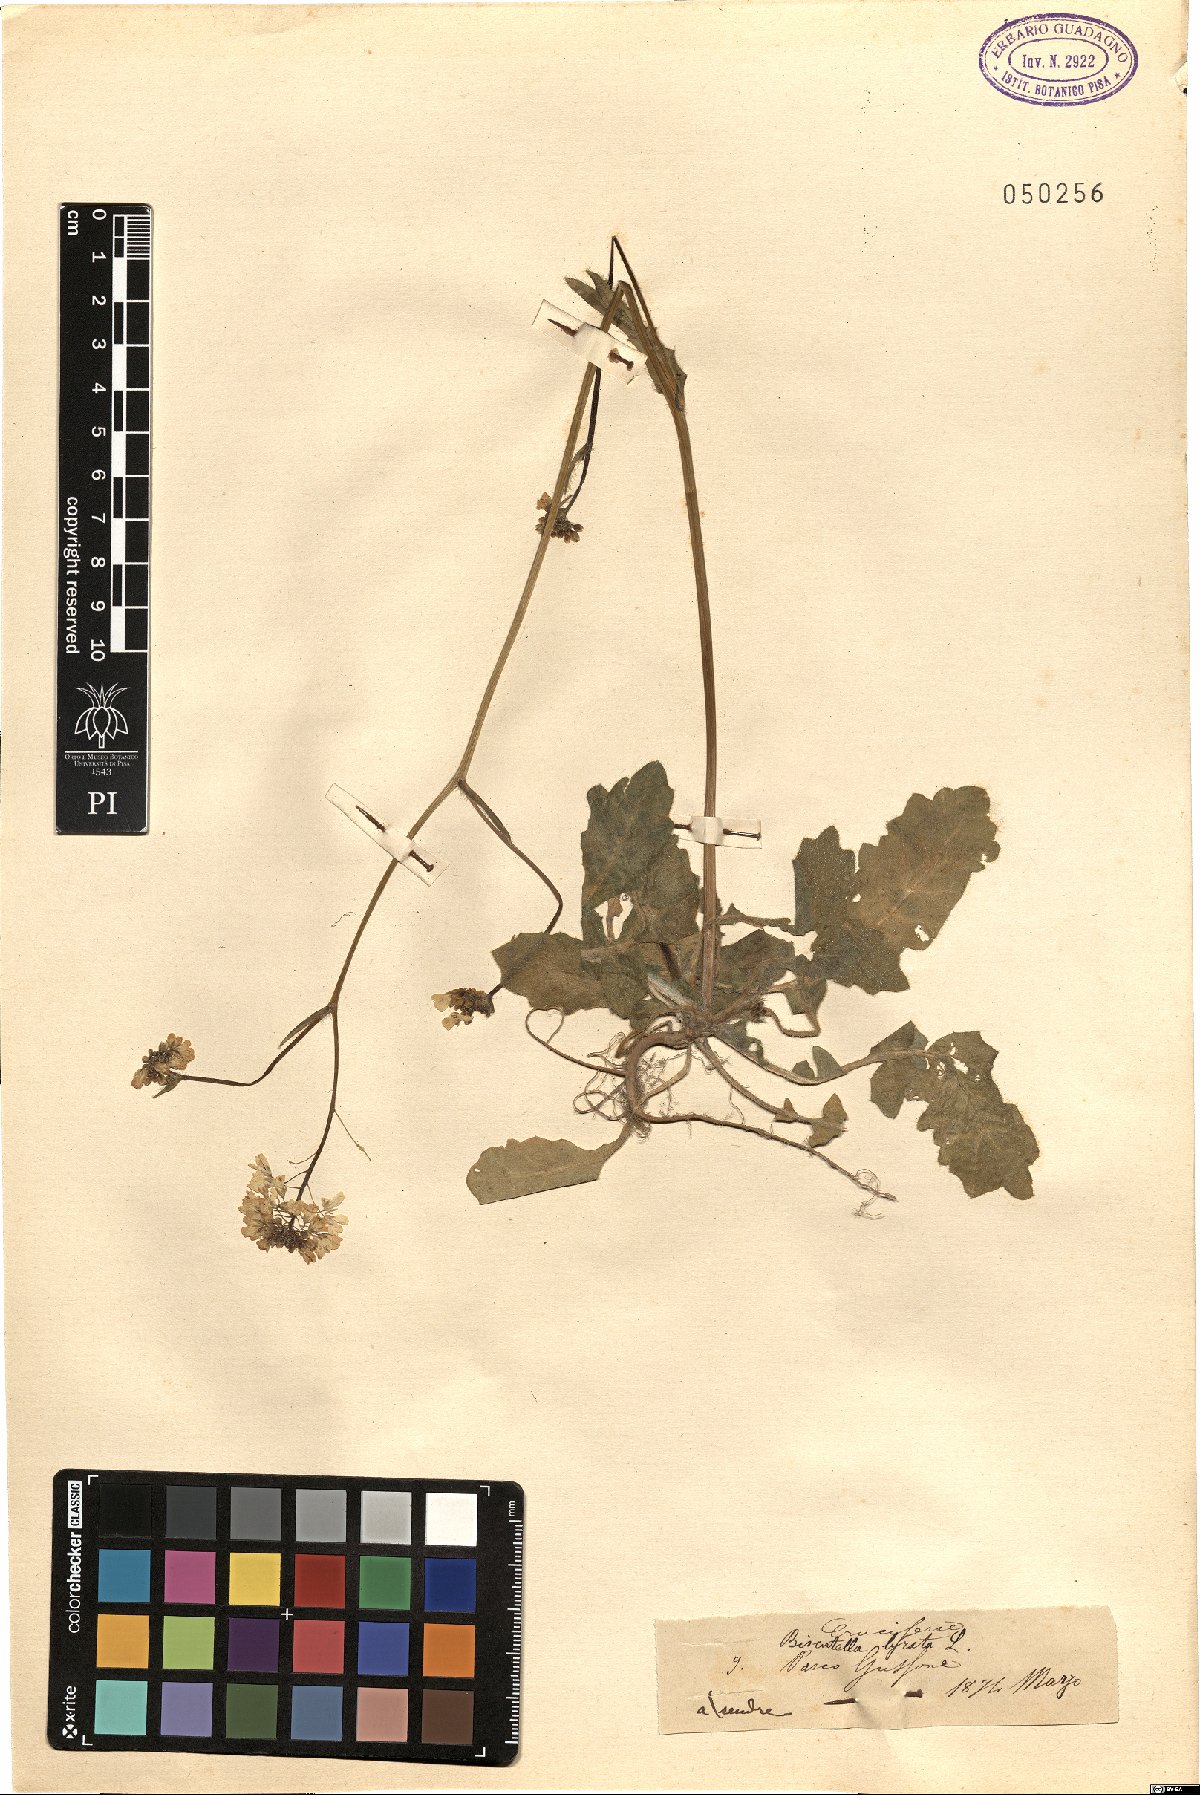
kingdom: Plantae
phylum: Tracheophyta
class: Magnoliopsida
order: Brassicales
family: Brassicaceae
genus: Biscutella
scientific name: Biscutella lyrata
